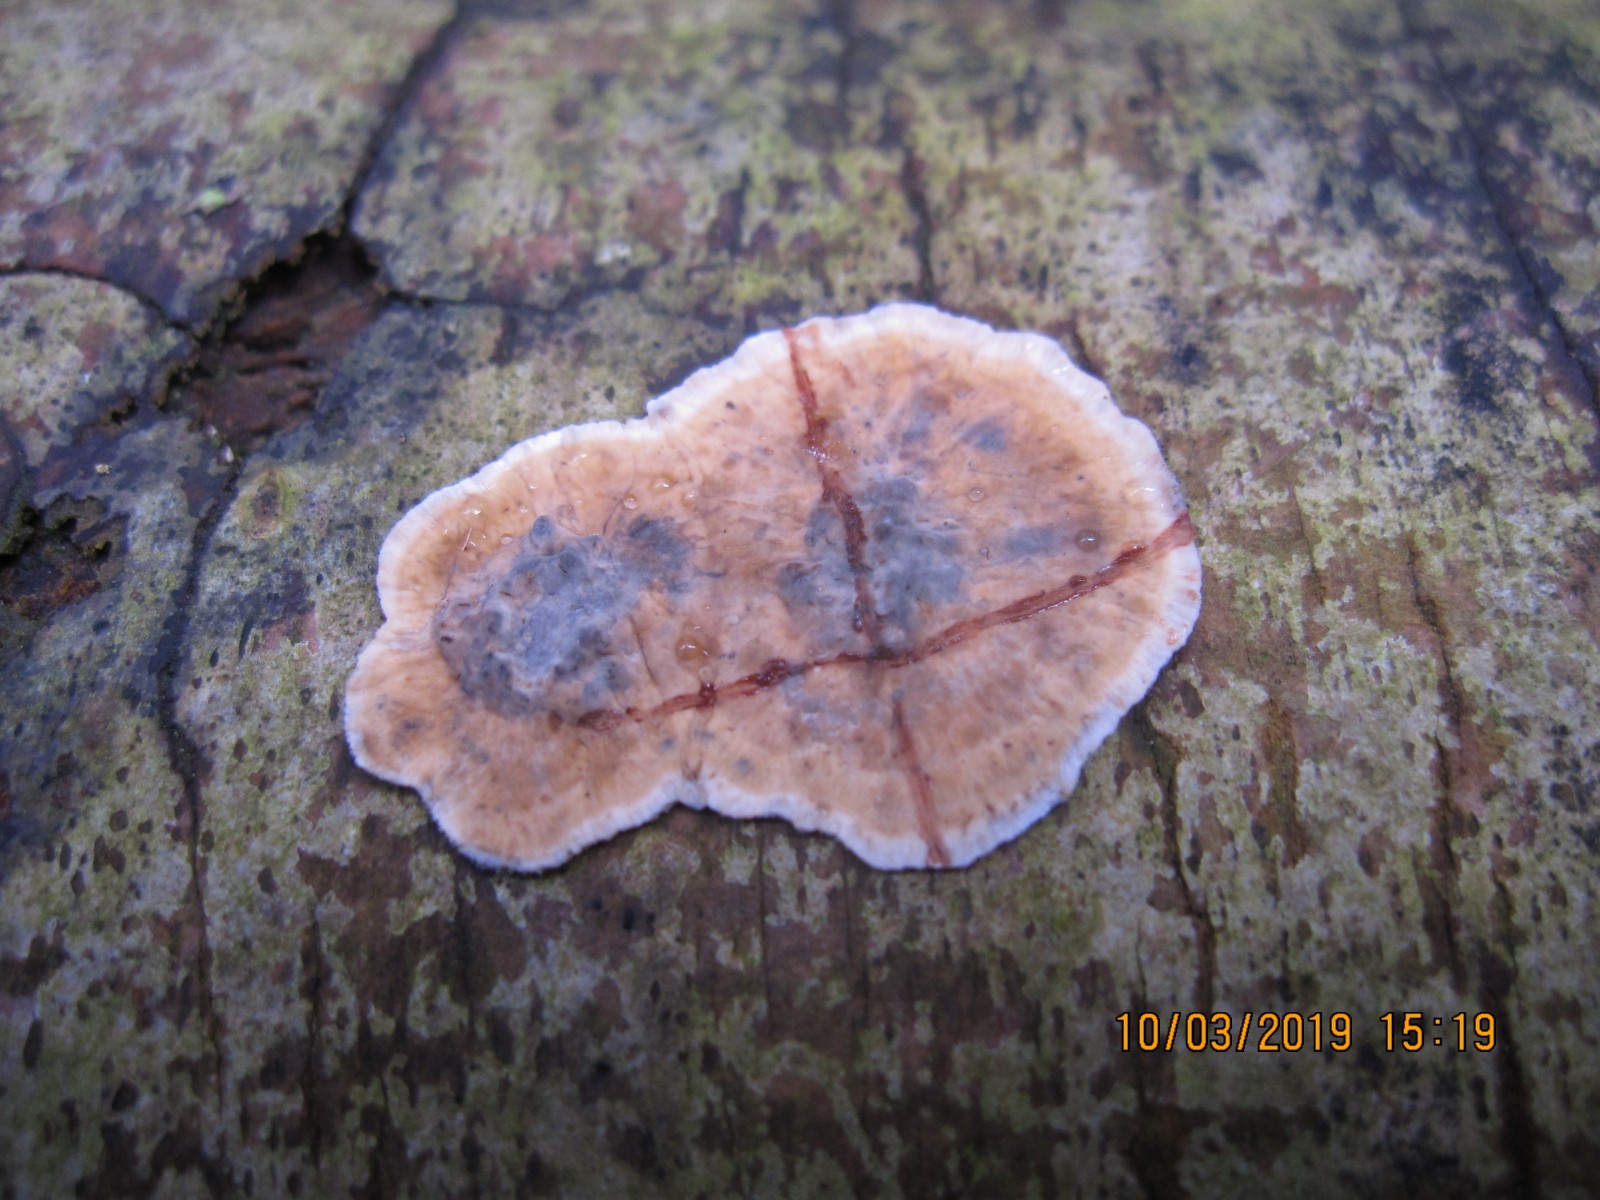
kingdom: Fungi
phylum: Basidiomycota
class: Agaricomycetes
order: Russulales
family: Stereaceae
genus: Stereum
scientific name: Stereum sanguinolentum
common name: blødende lædersvamp
